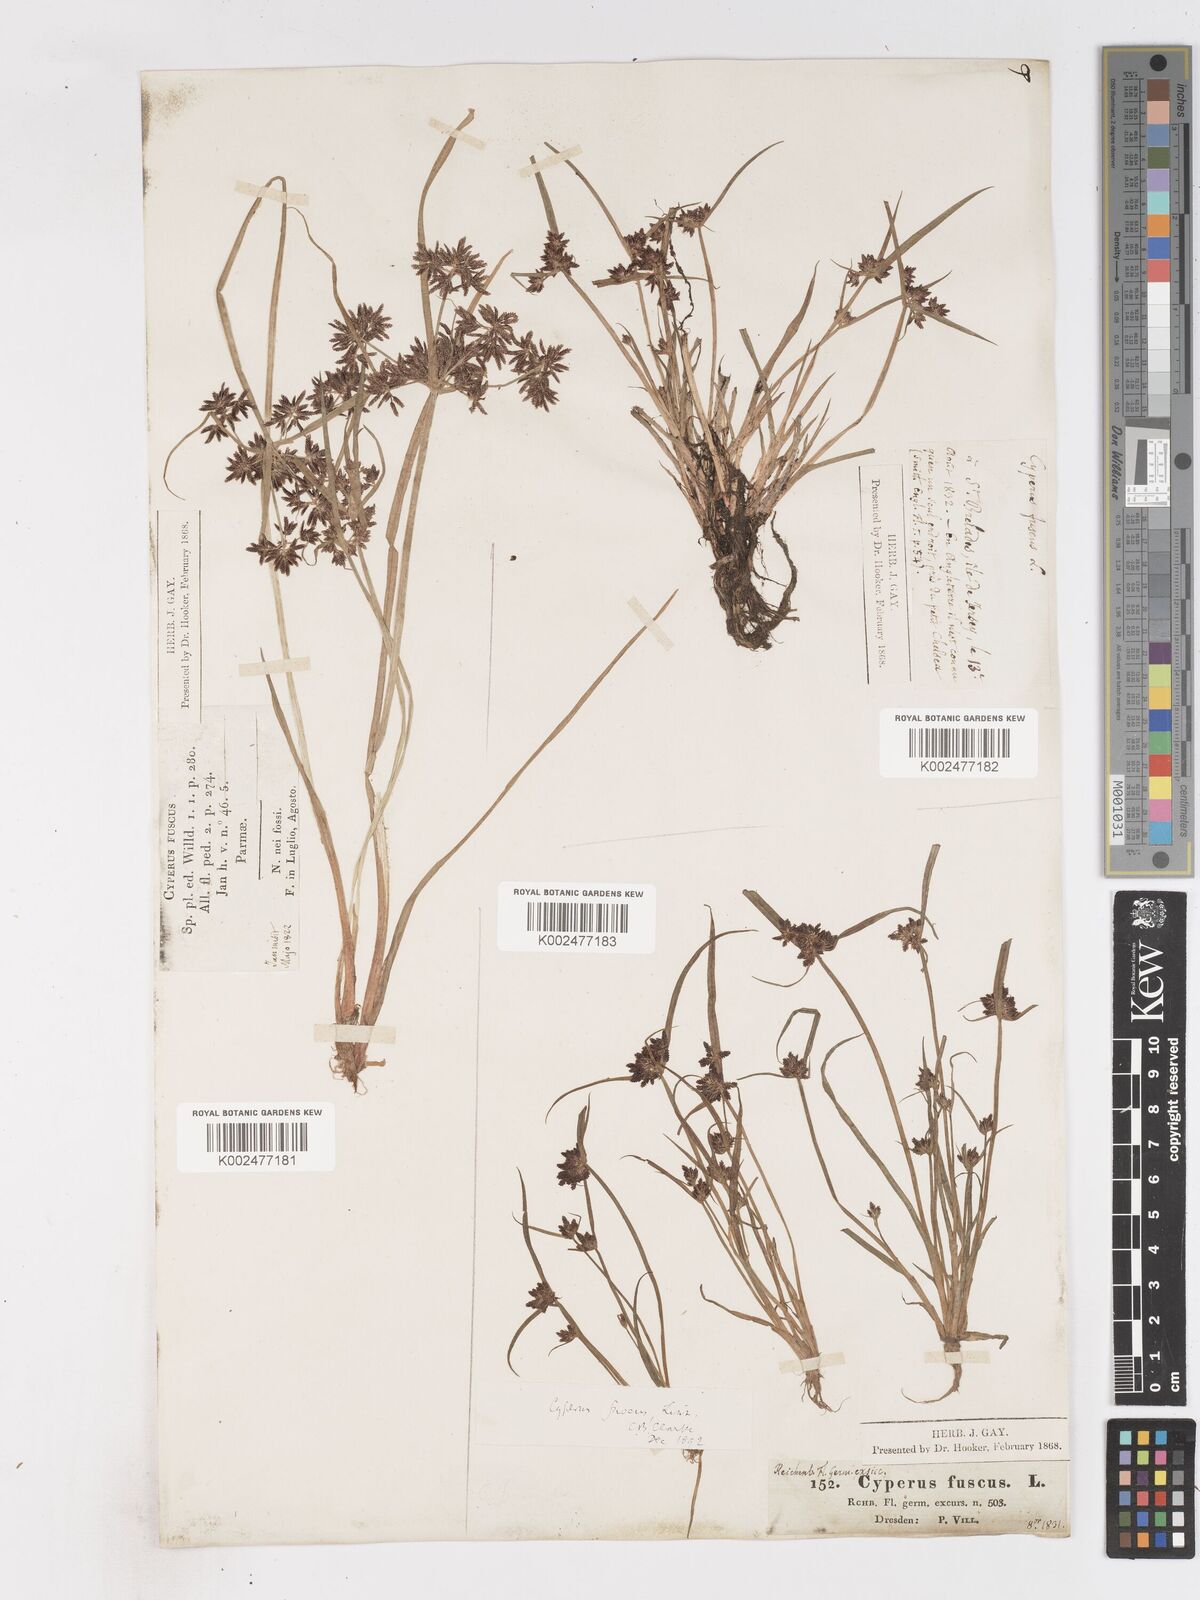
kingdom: Plantae
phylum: Tracheophyta
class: Liliopsida
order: Poales
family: Cyperaceae
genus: Cyperus
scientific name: Cyperus fuscus
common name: Brown galingale
